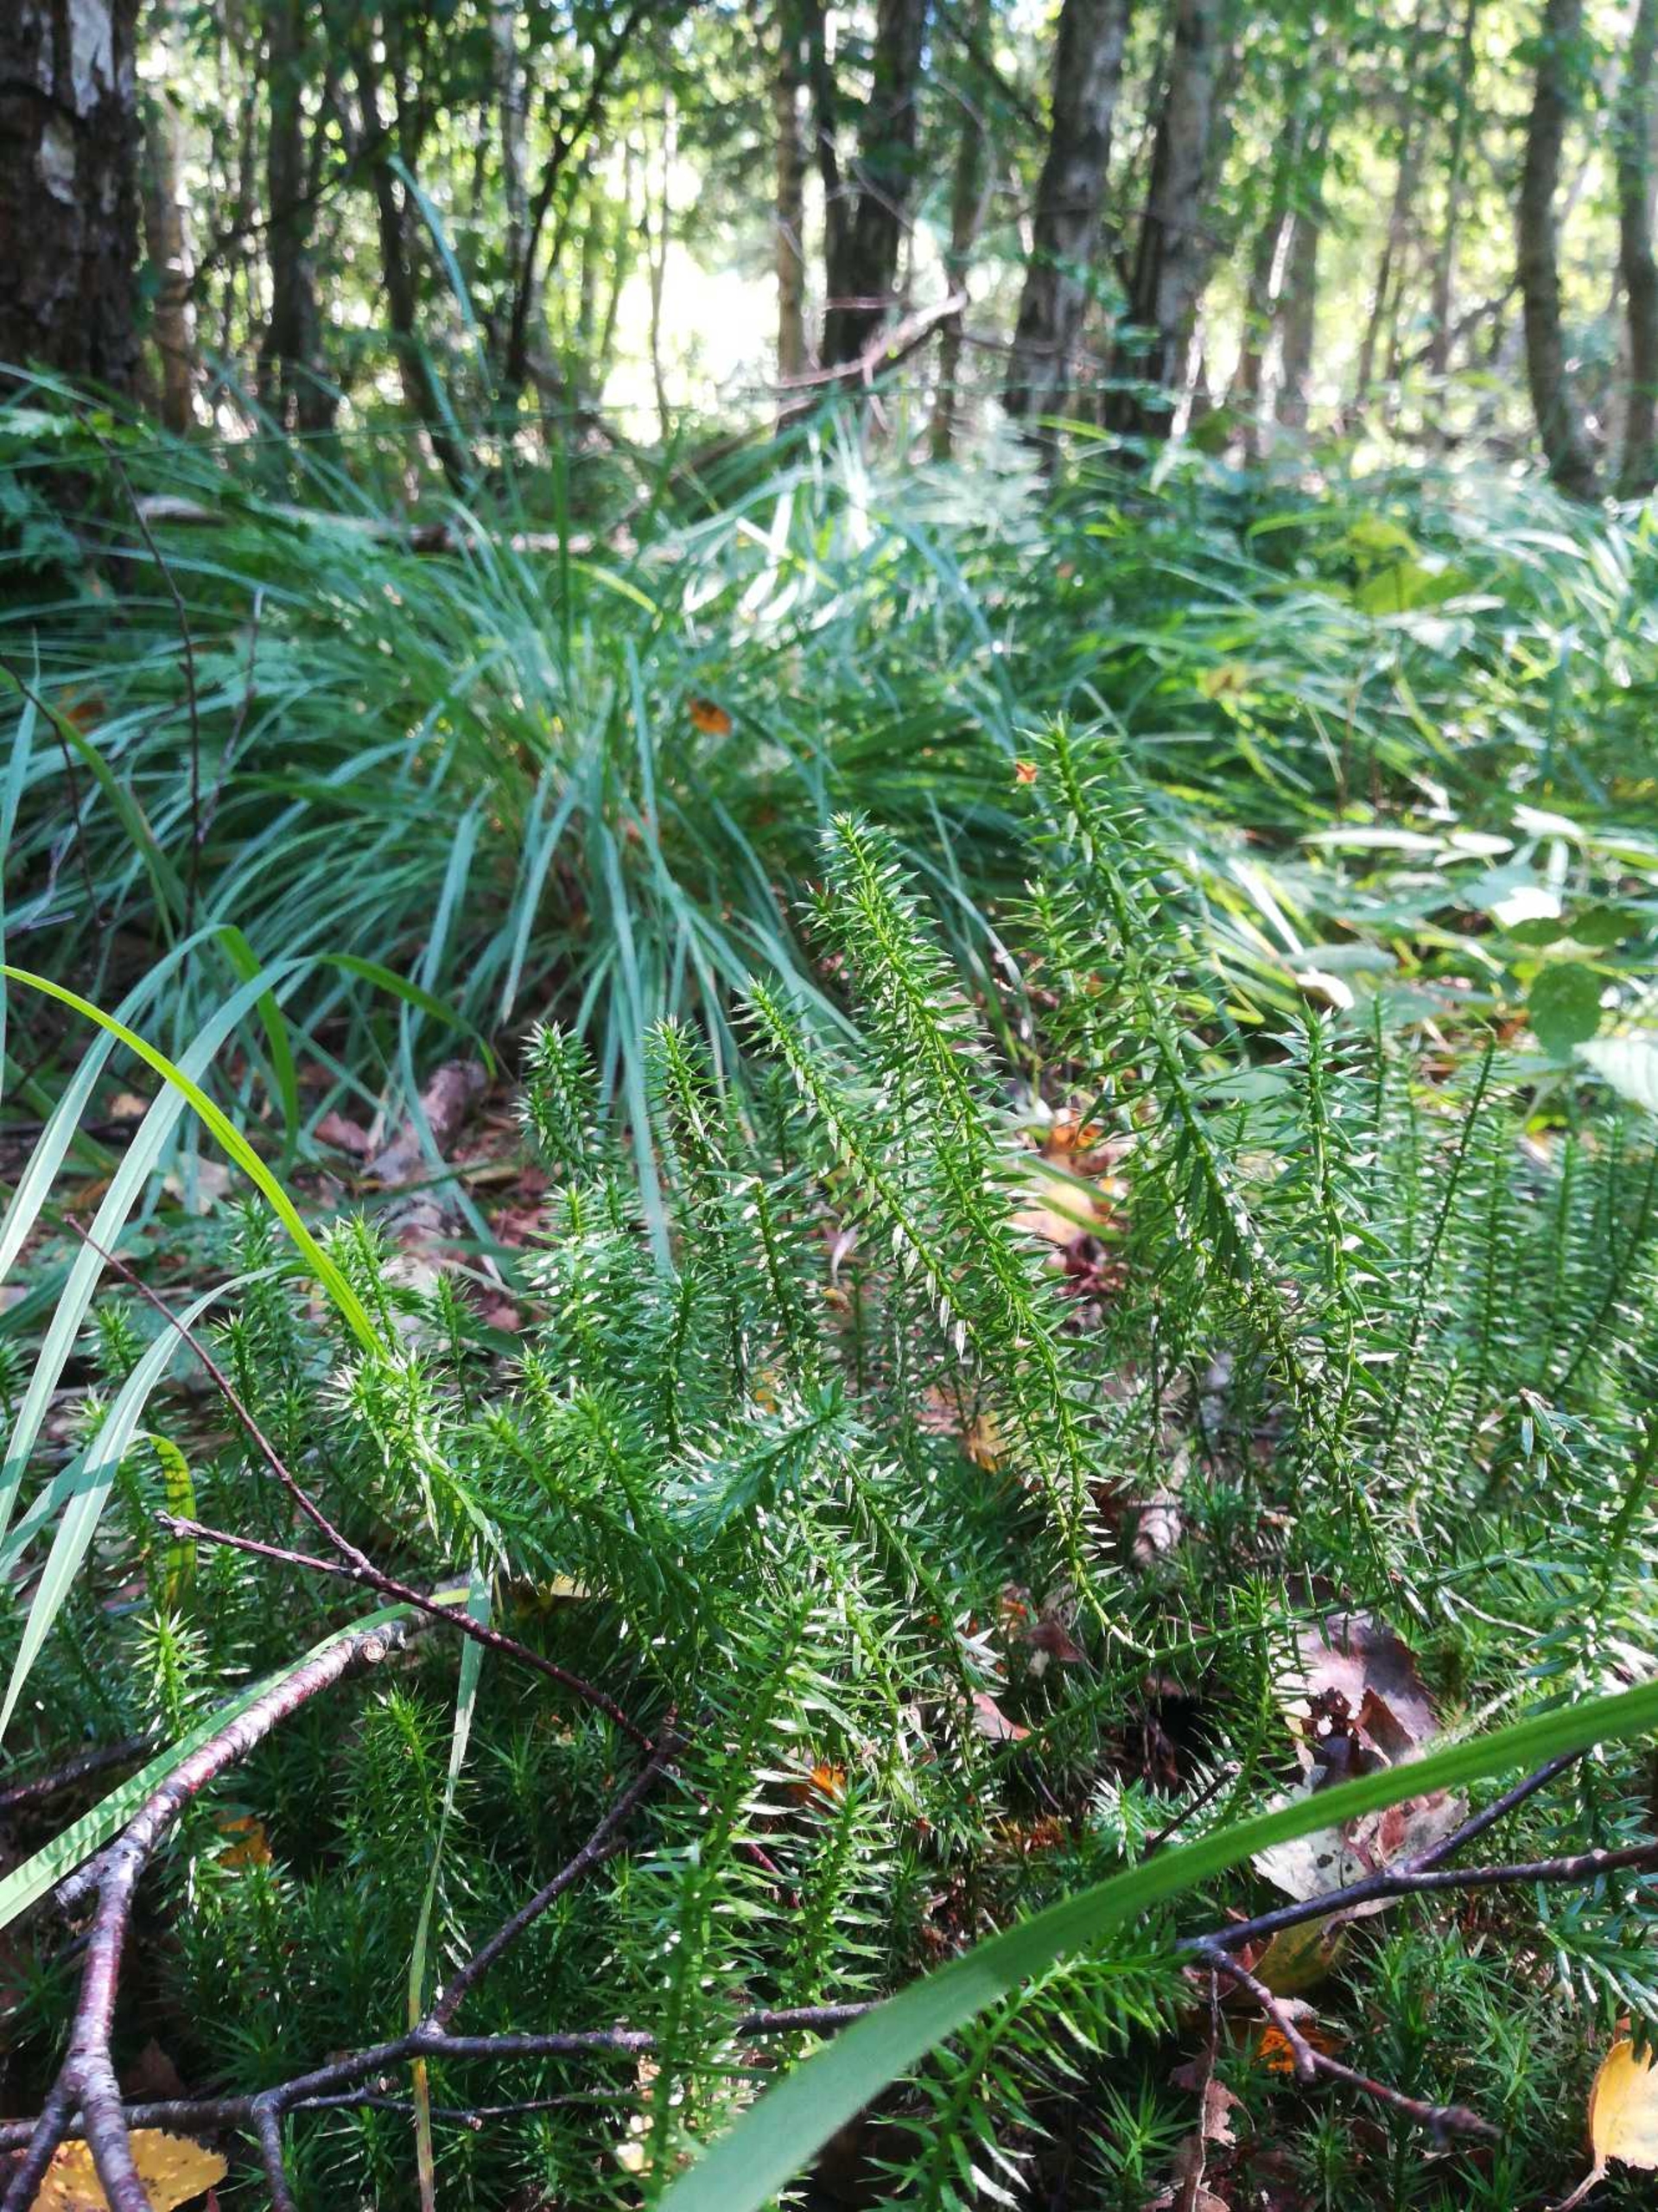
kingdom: Plantae
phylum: Tracheophyta
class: Lycopodiopsida
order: Lycopodiales
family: Lycopodiaceae
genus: Spinulum
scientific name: Spinulum annotinum
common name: Femradet ulvefod
